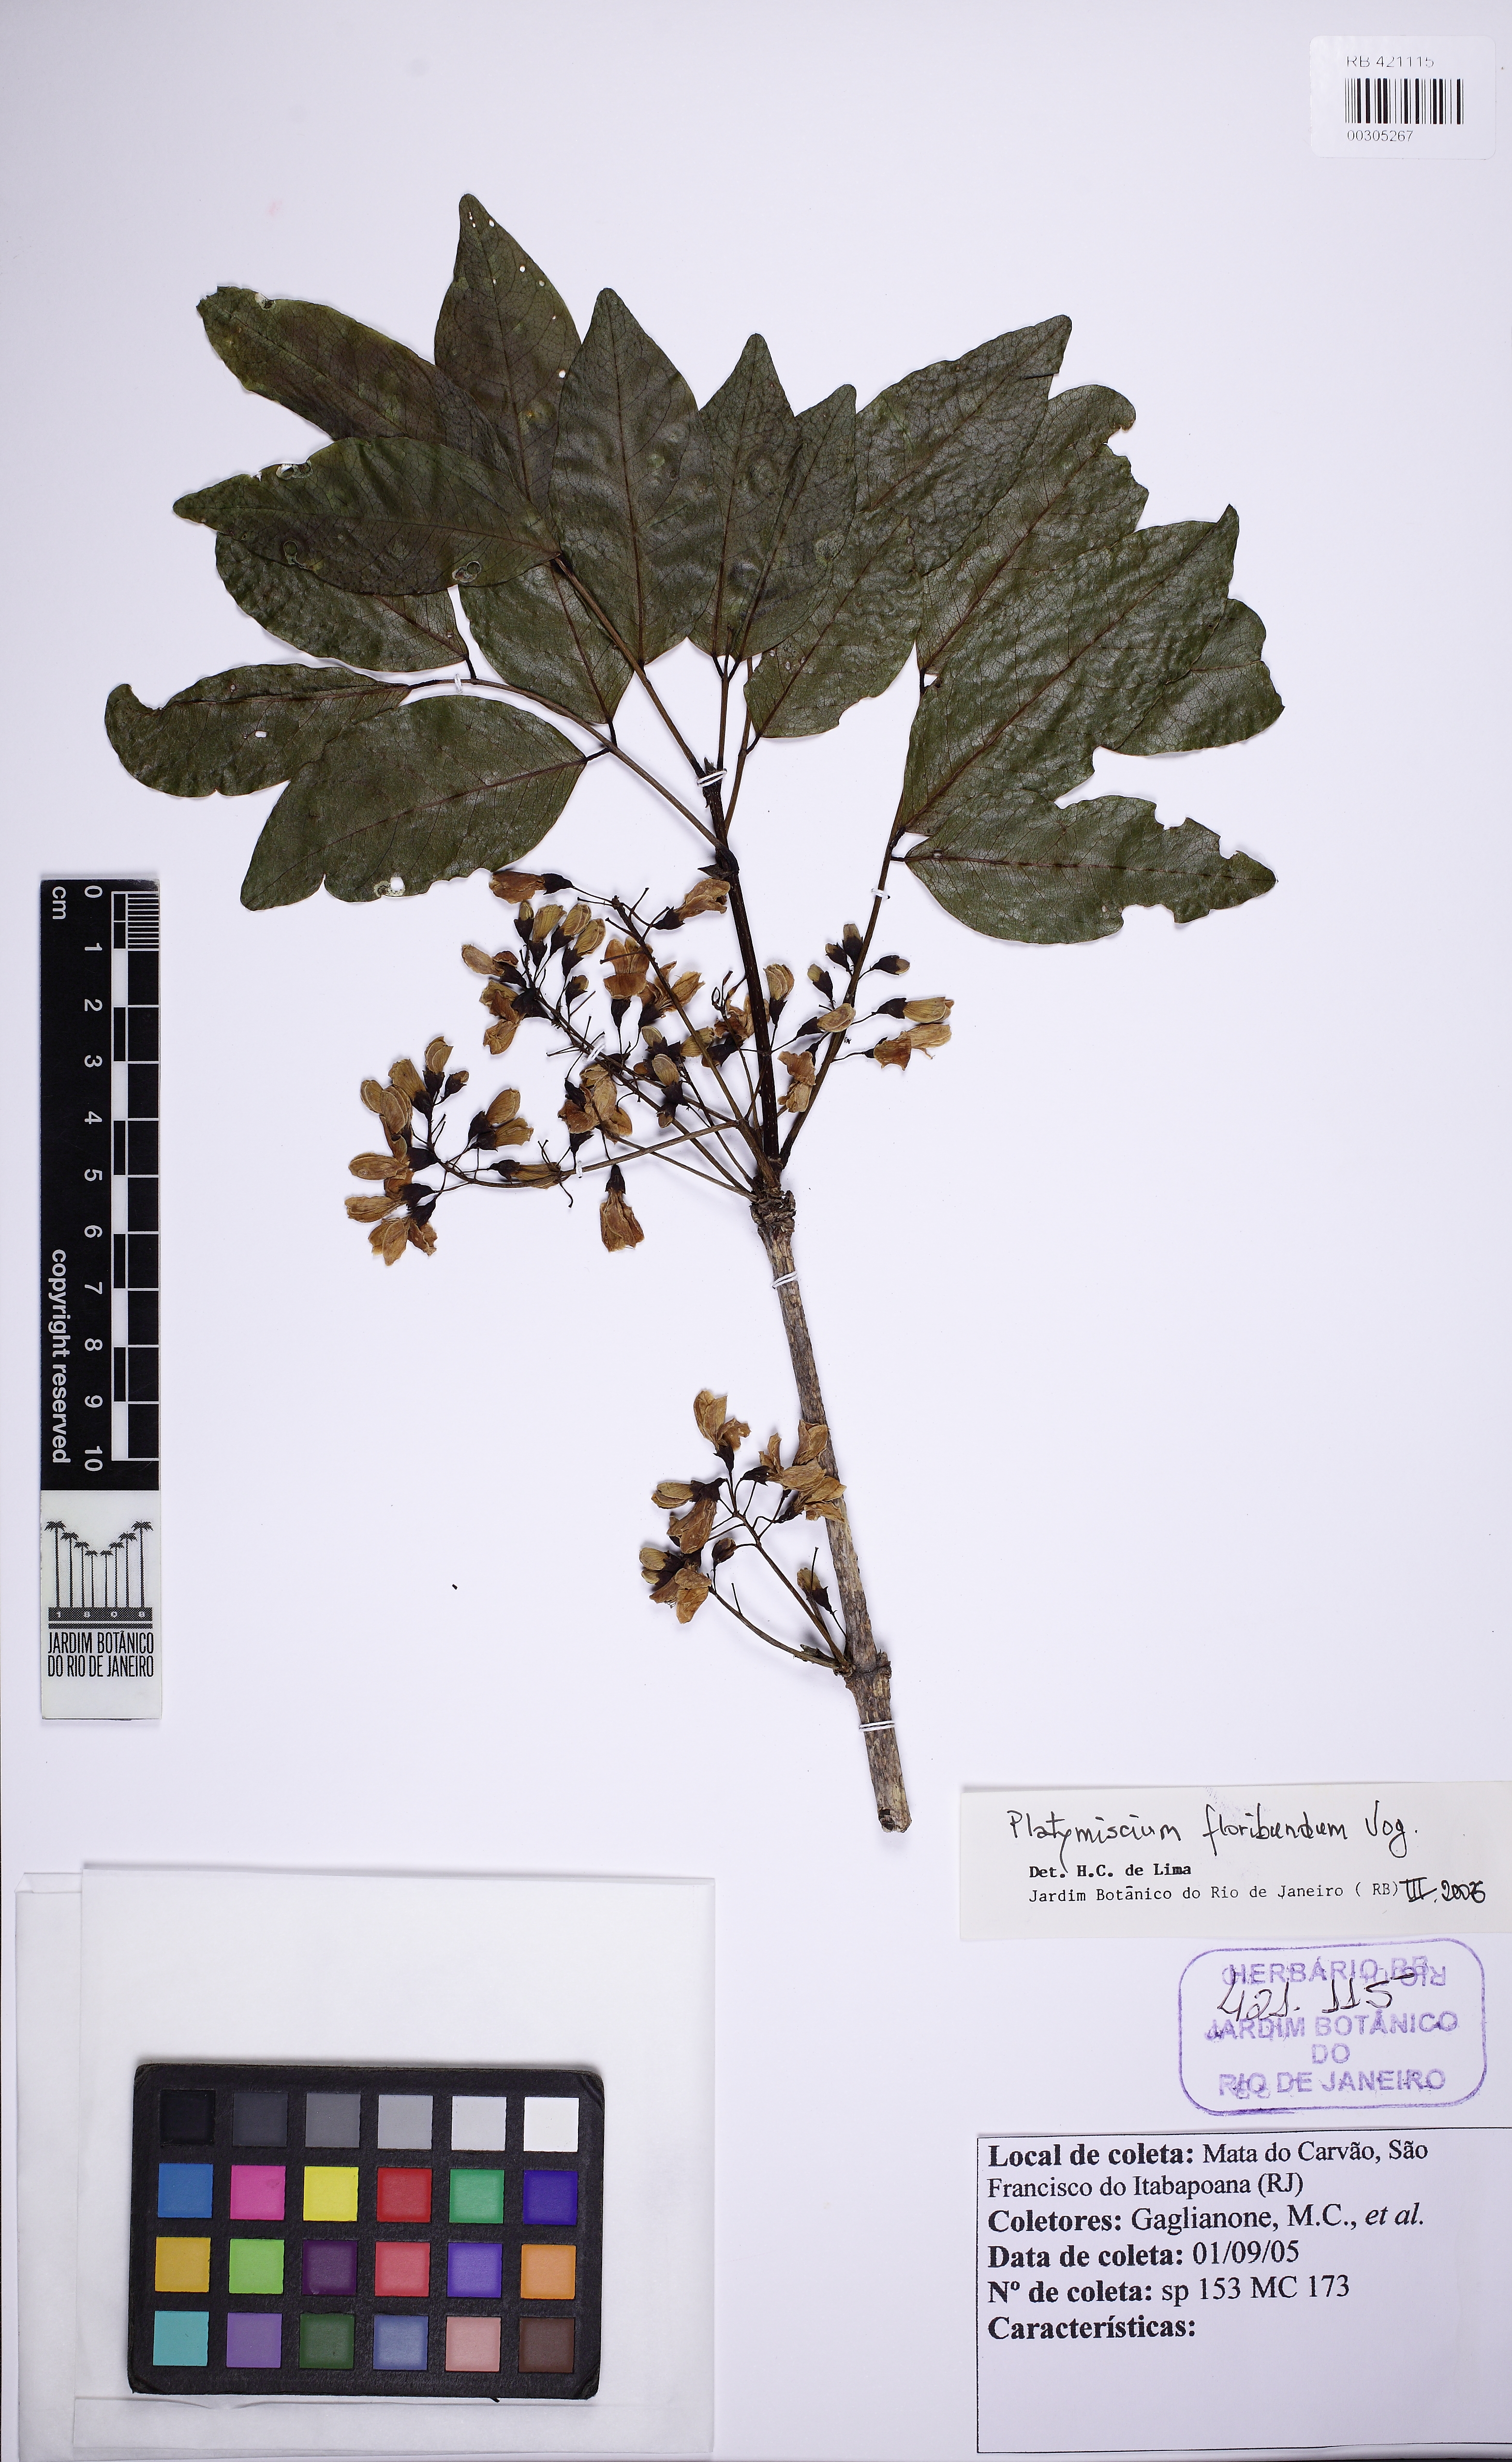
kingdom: Plantae
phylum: Tracheophyta
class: Magnoliopsida
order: Fabales
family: Fabaceae
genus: Platymiscium
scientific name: Platymiscium floribundum
